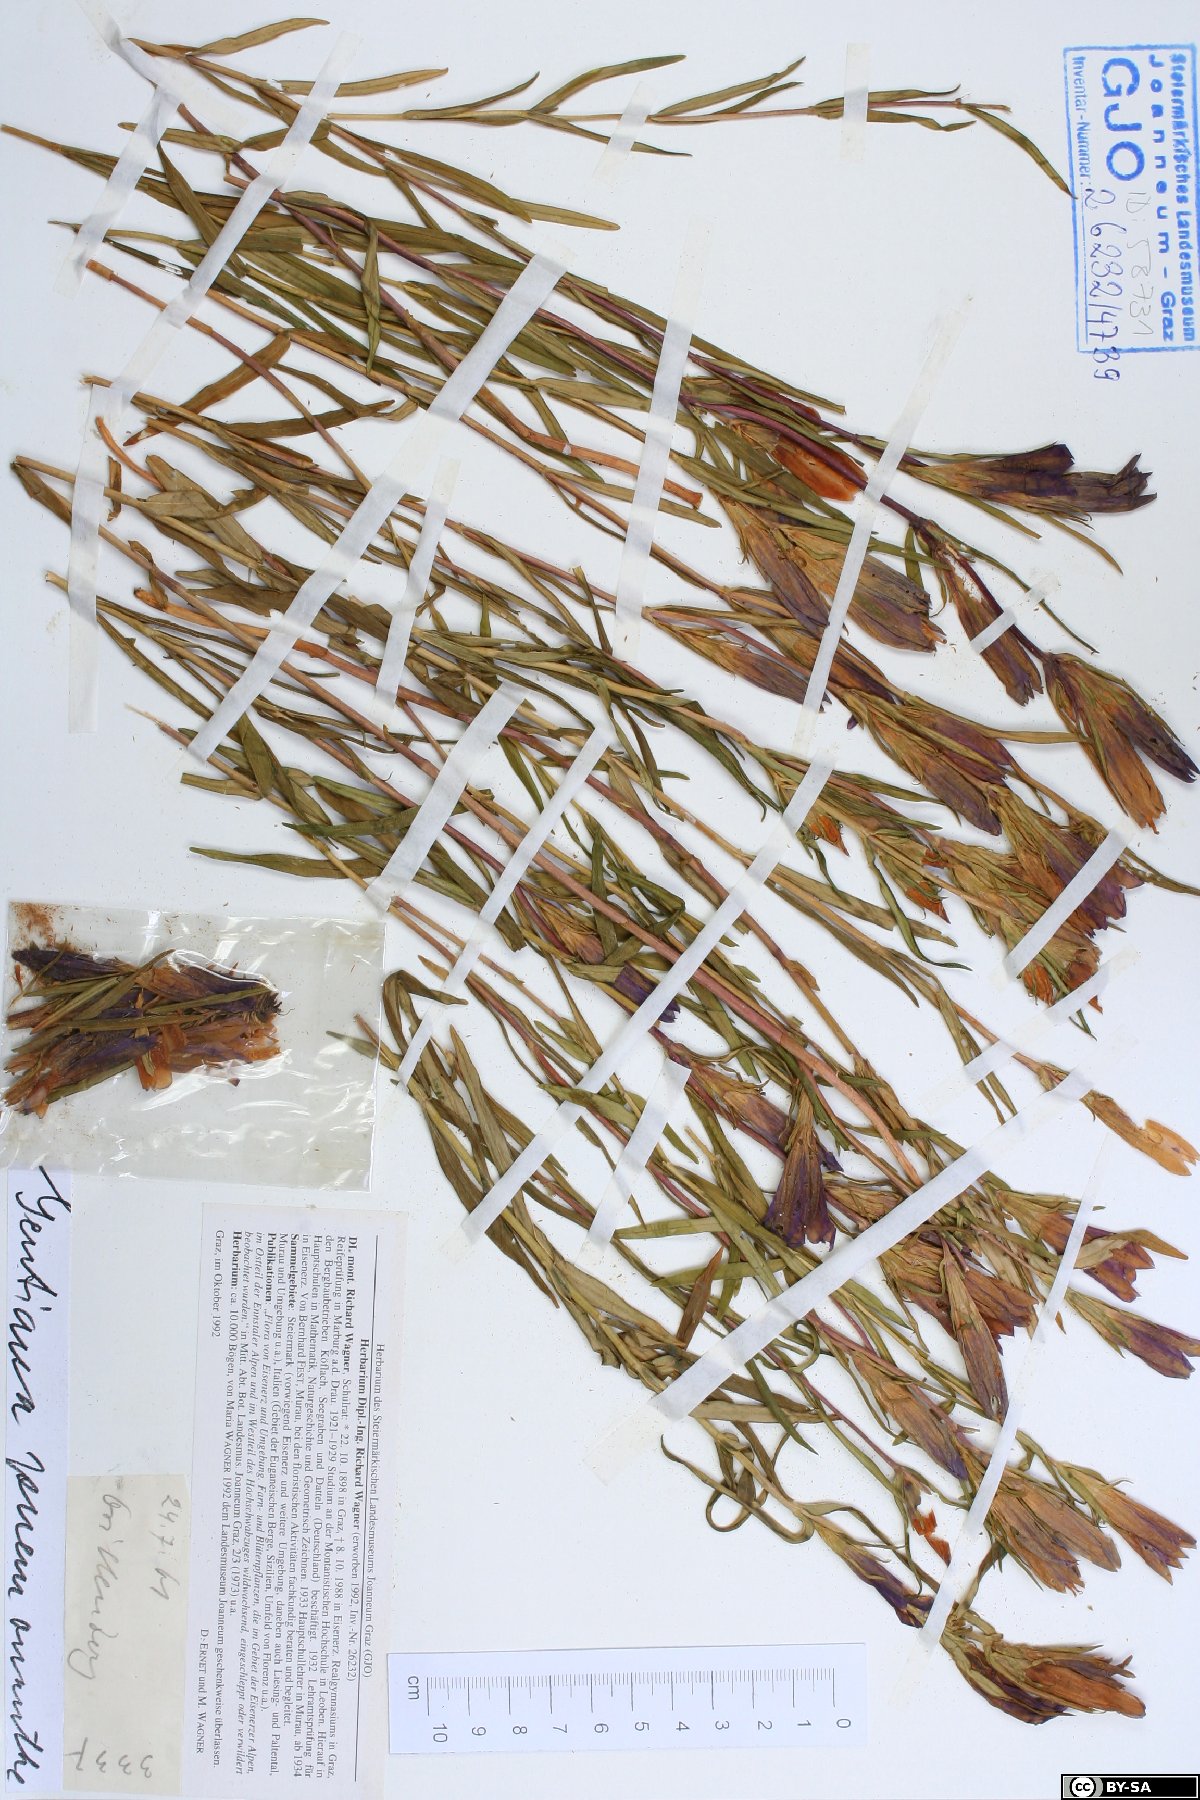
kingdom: Plantae
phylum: Tracheophyta
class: Magnoliopsida
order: Gentianales
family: Gentianaceae
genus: Gentiana
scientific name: Gentiana pneumonanthe
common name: Marsh gentian
